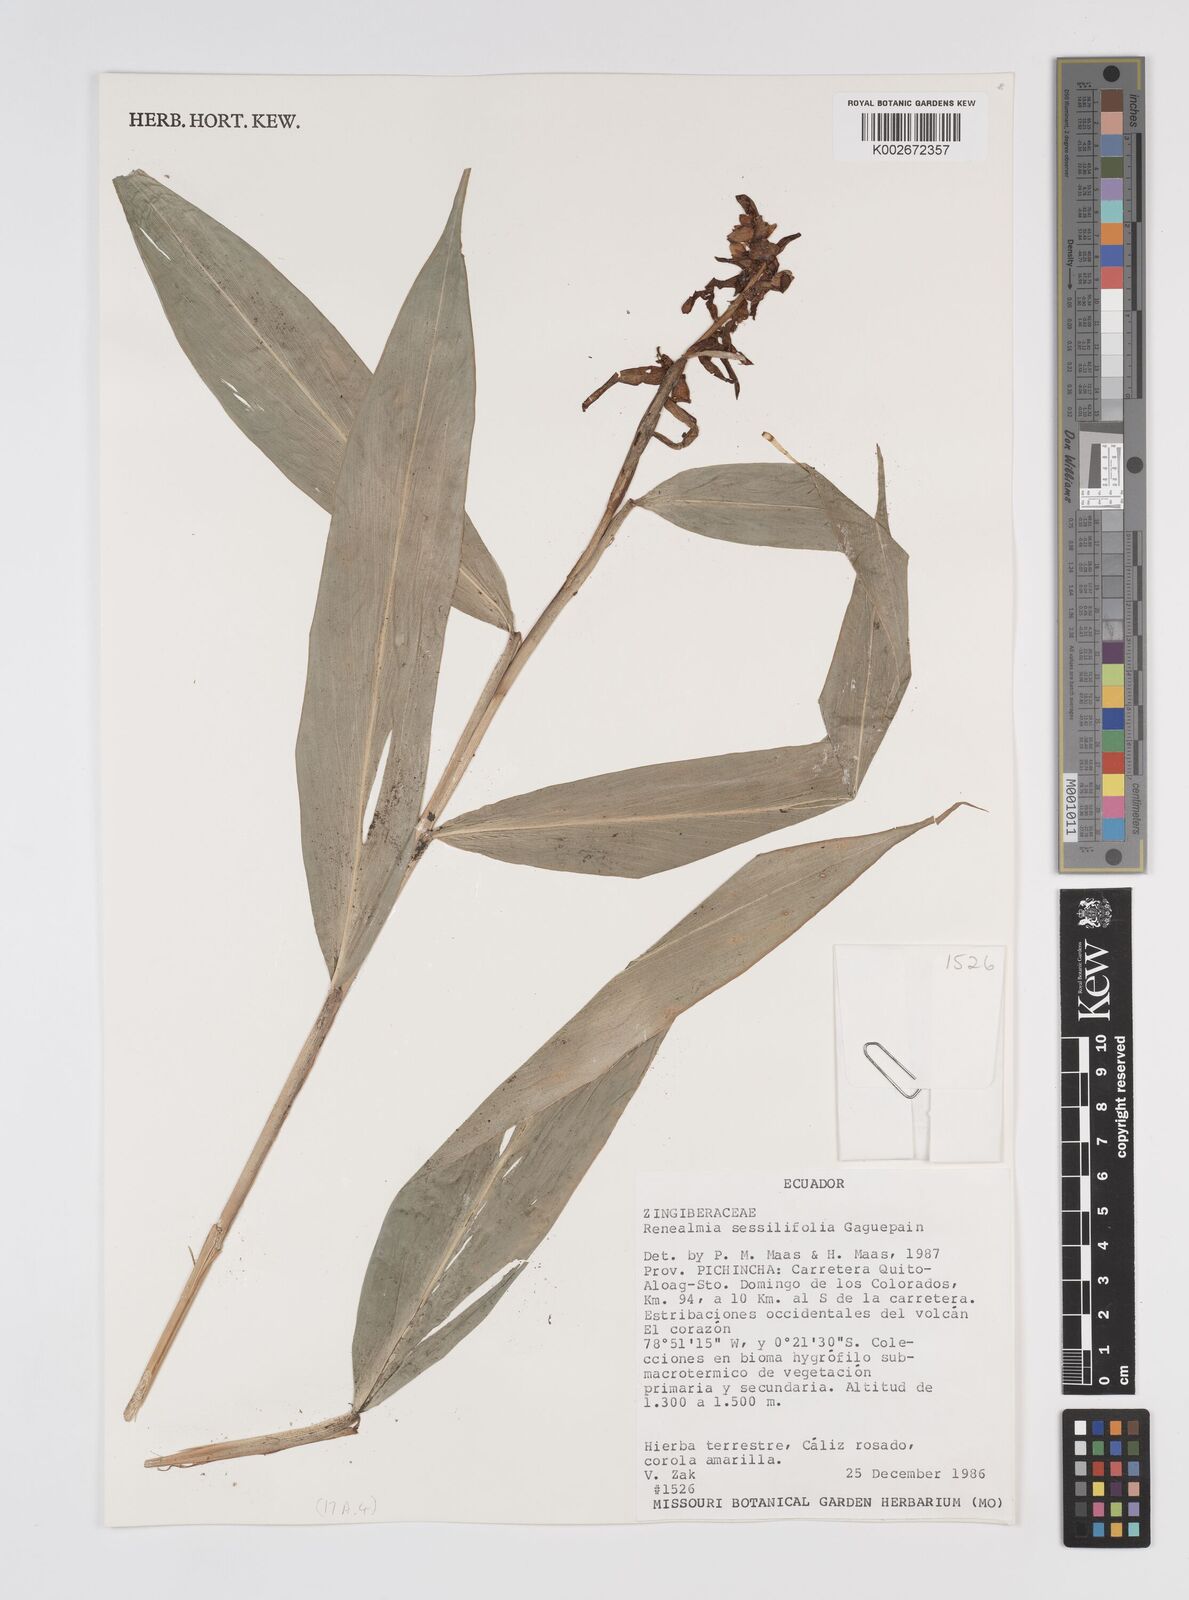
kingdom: Plantae
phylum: Tracheophyta
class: Liliopsida
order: Zingiberales
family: Zingiberaceae
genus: Renealmia
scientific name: Renealmia sessilifolia
